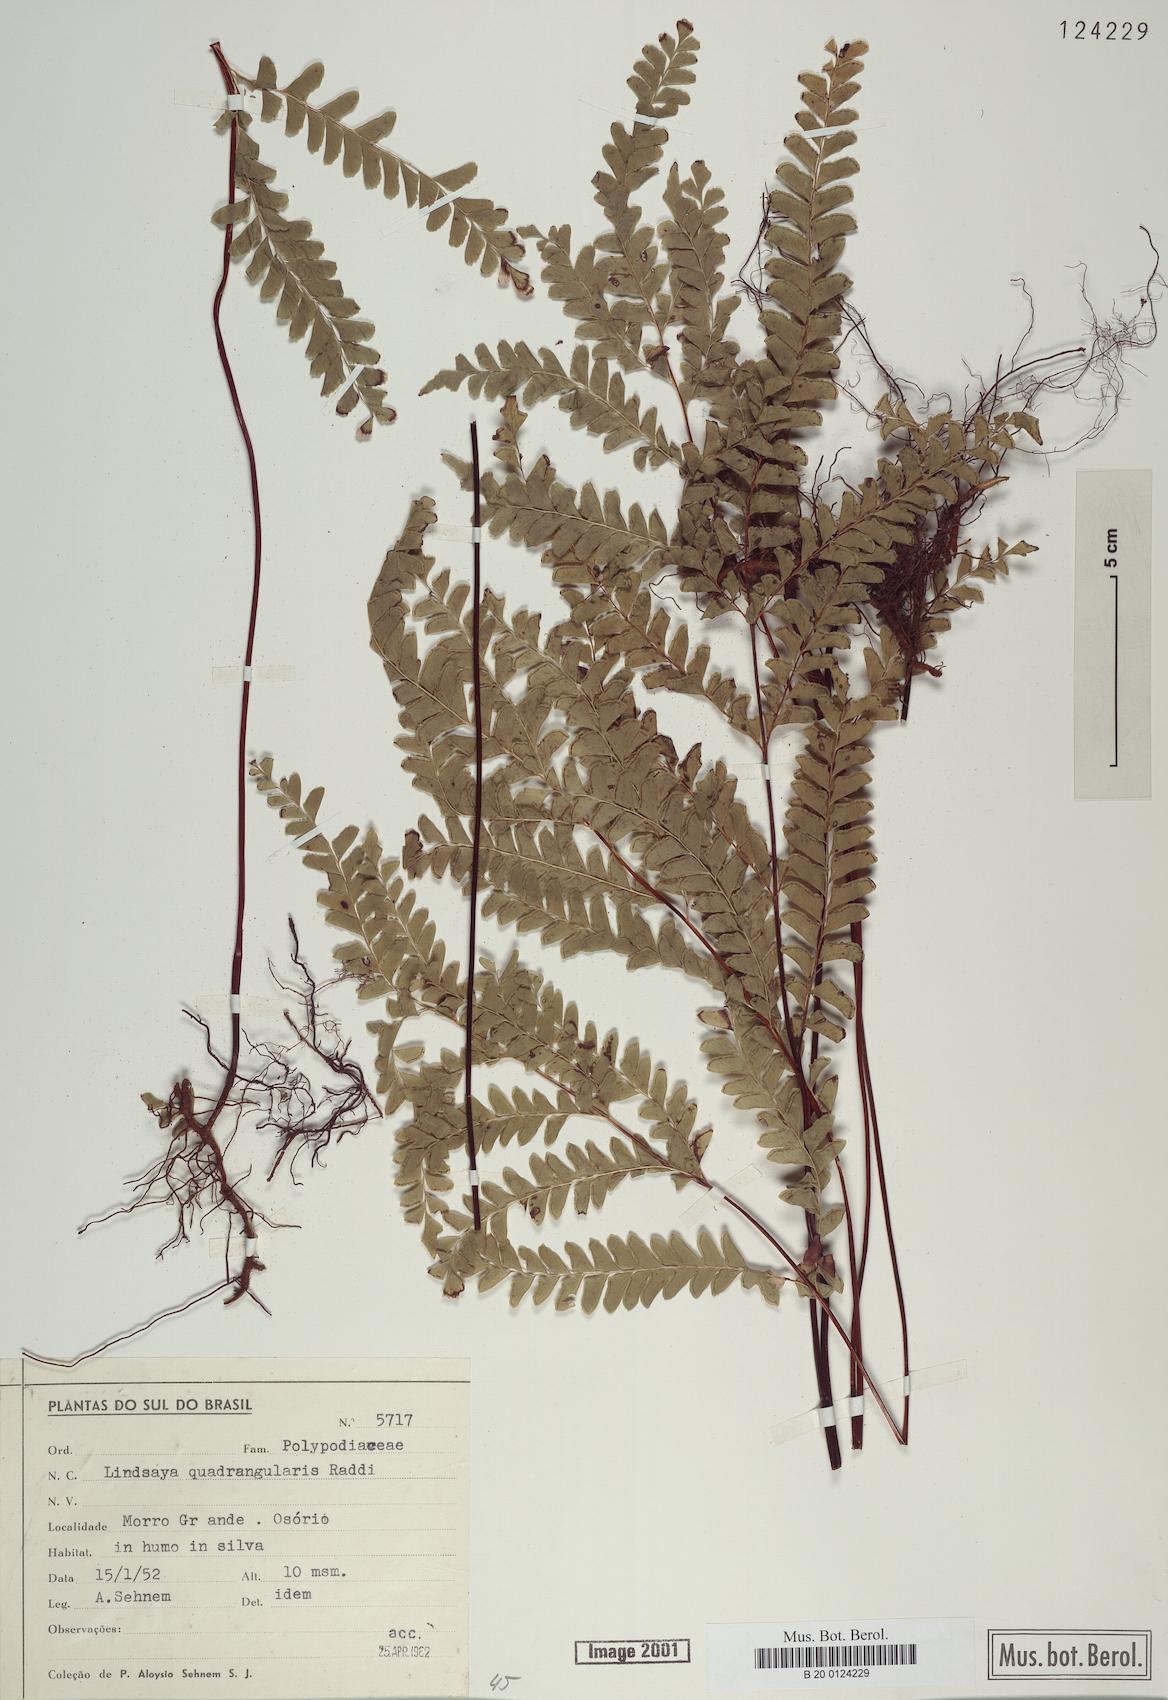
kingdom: Plantae
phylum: Tracheophyta
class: Polypodiopsida
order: Polypodiales
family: Lindsaeaceae
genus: Lindsaea
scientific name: Lindsaea quadrangularis
